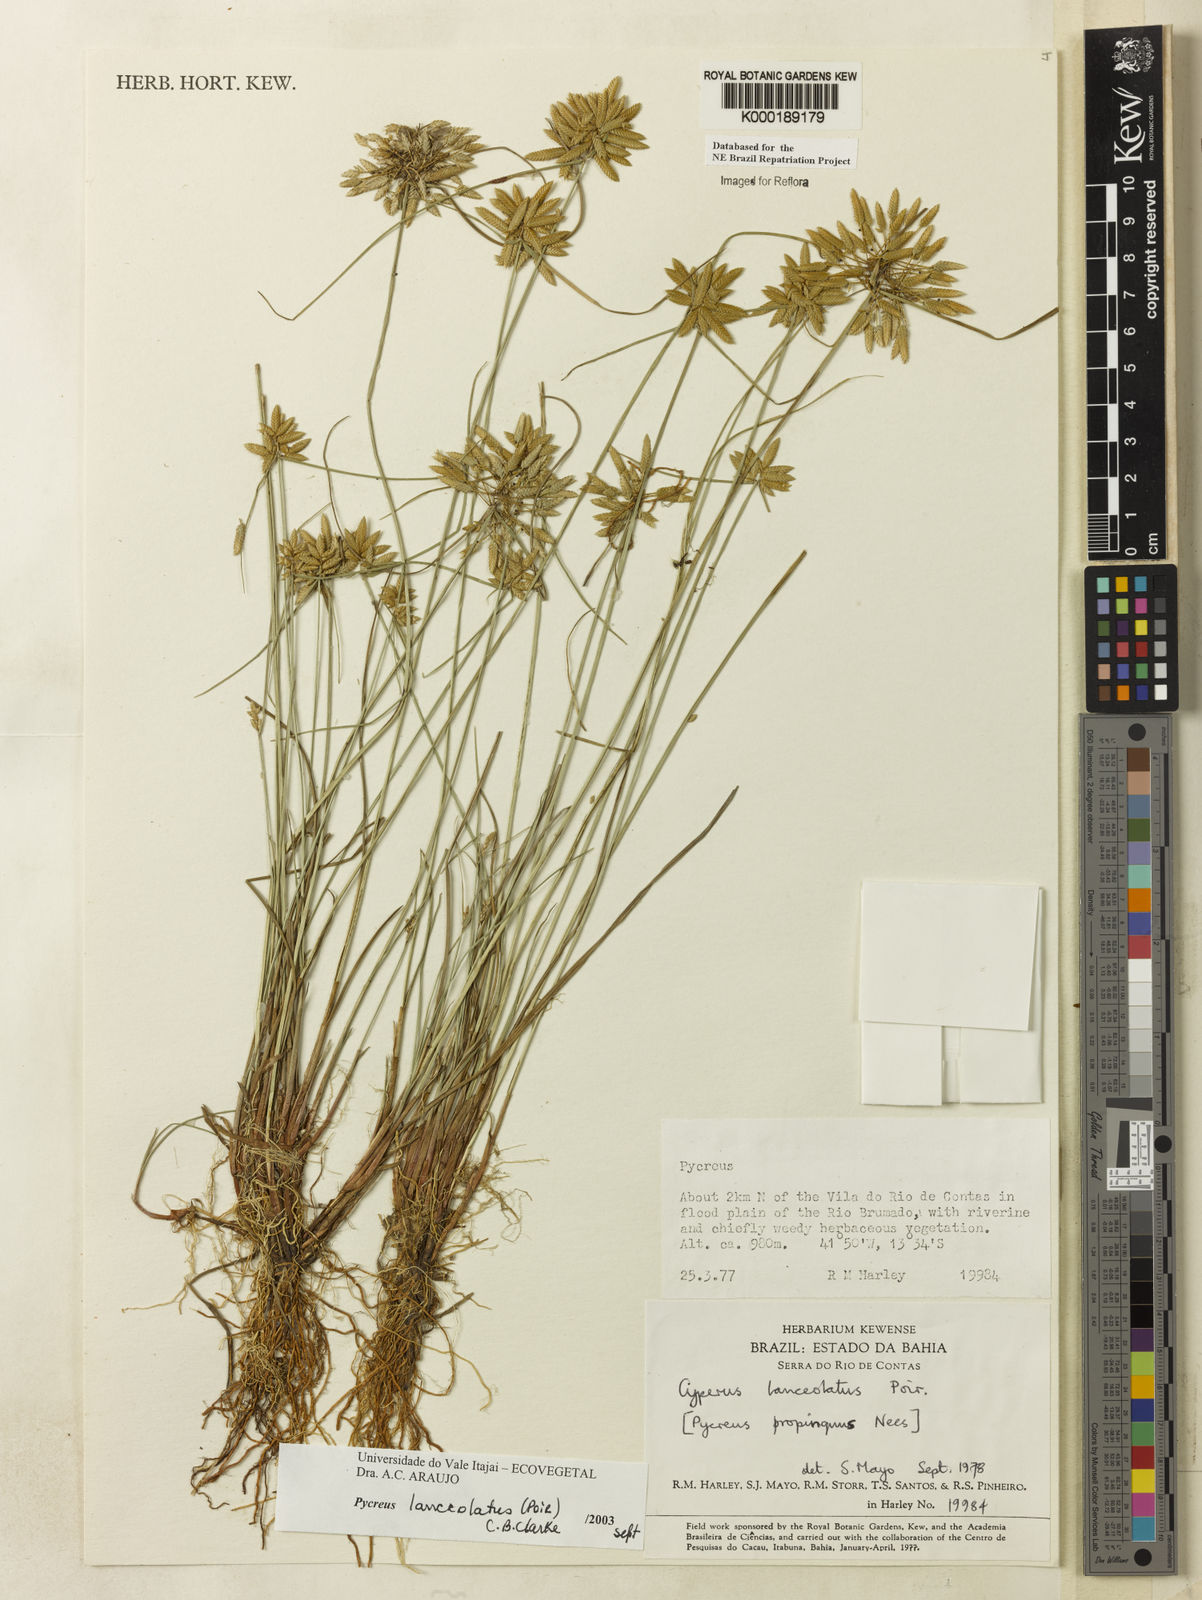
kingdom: Plantae
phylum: Tracheophyta
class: Liliopsida
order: Poales
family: Cyperaceae
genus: Cyperus
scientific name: Cyperus lanceolatus
